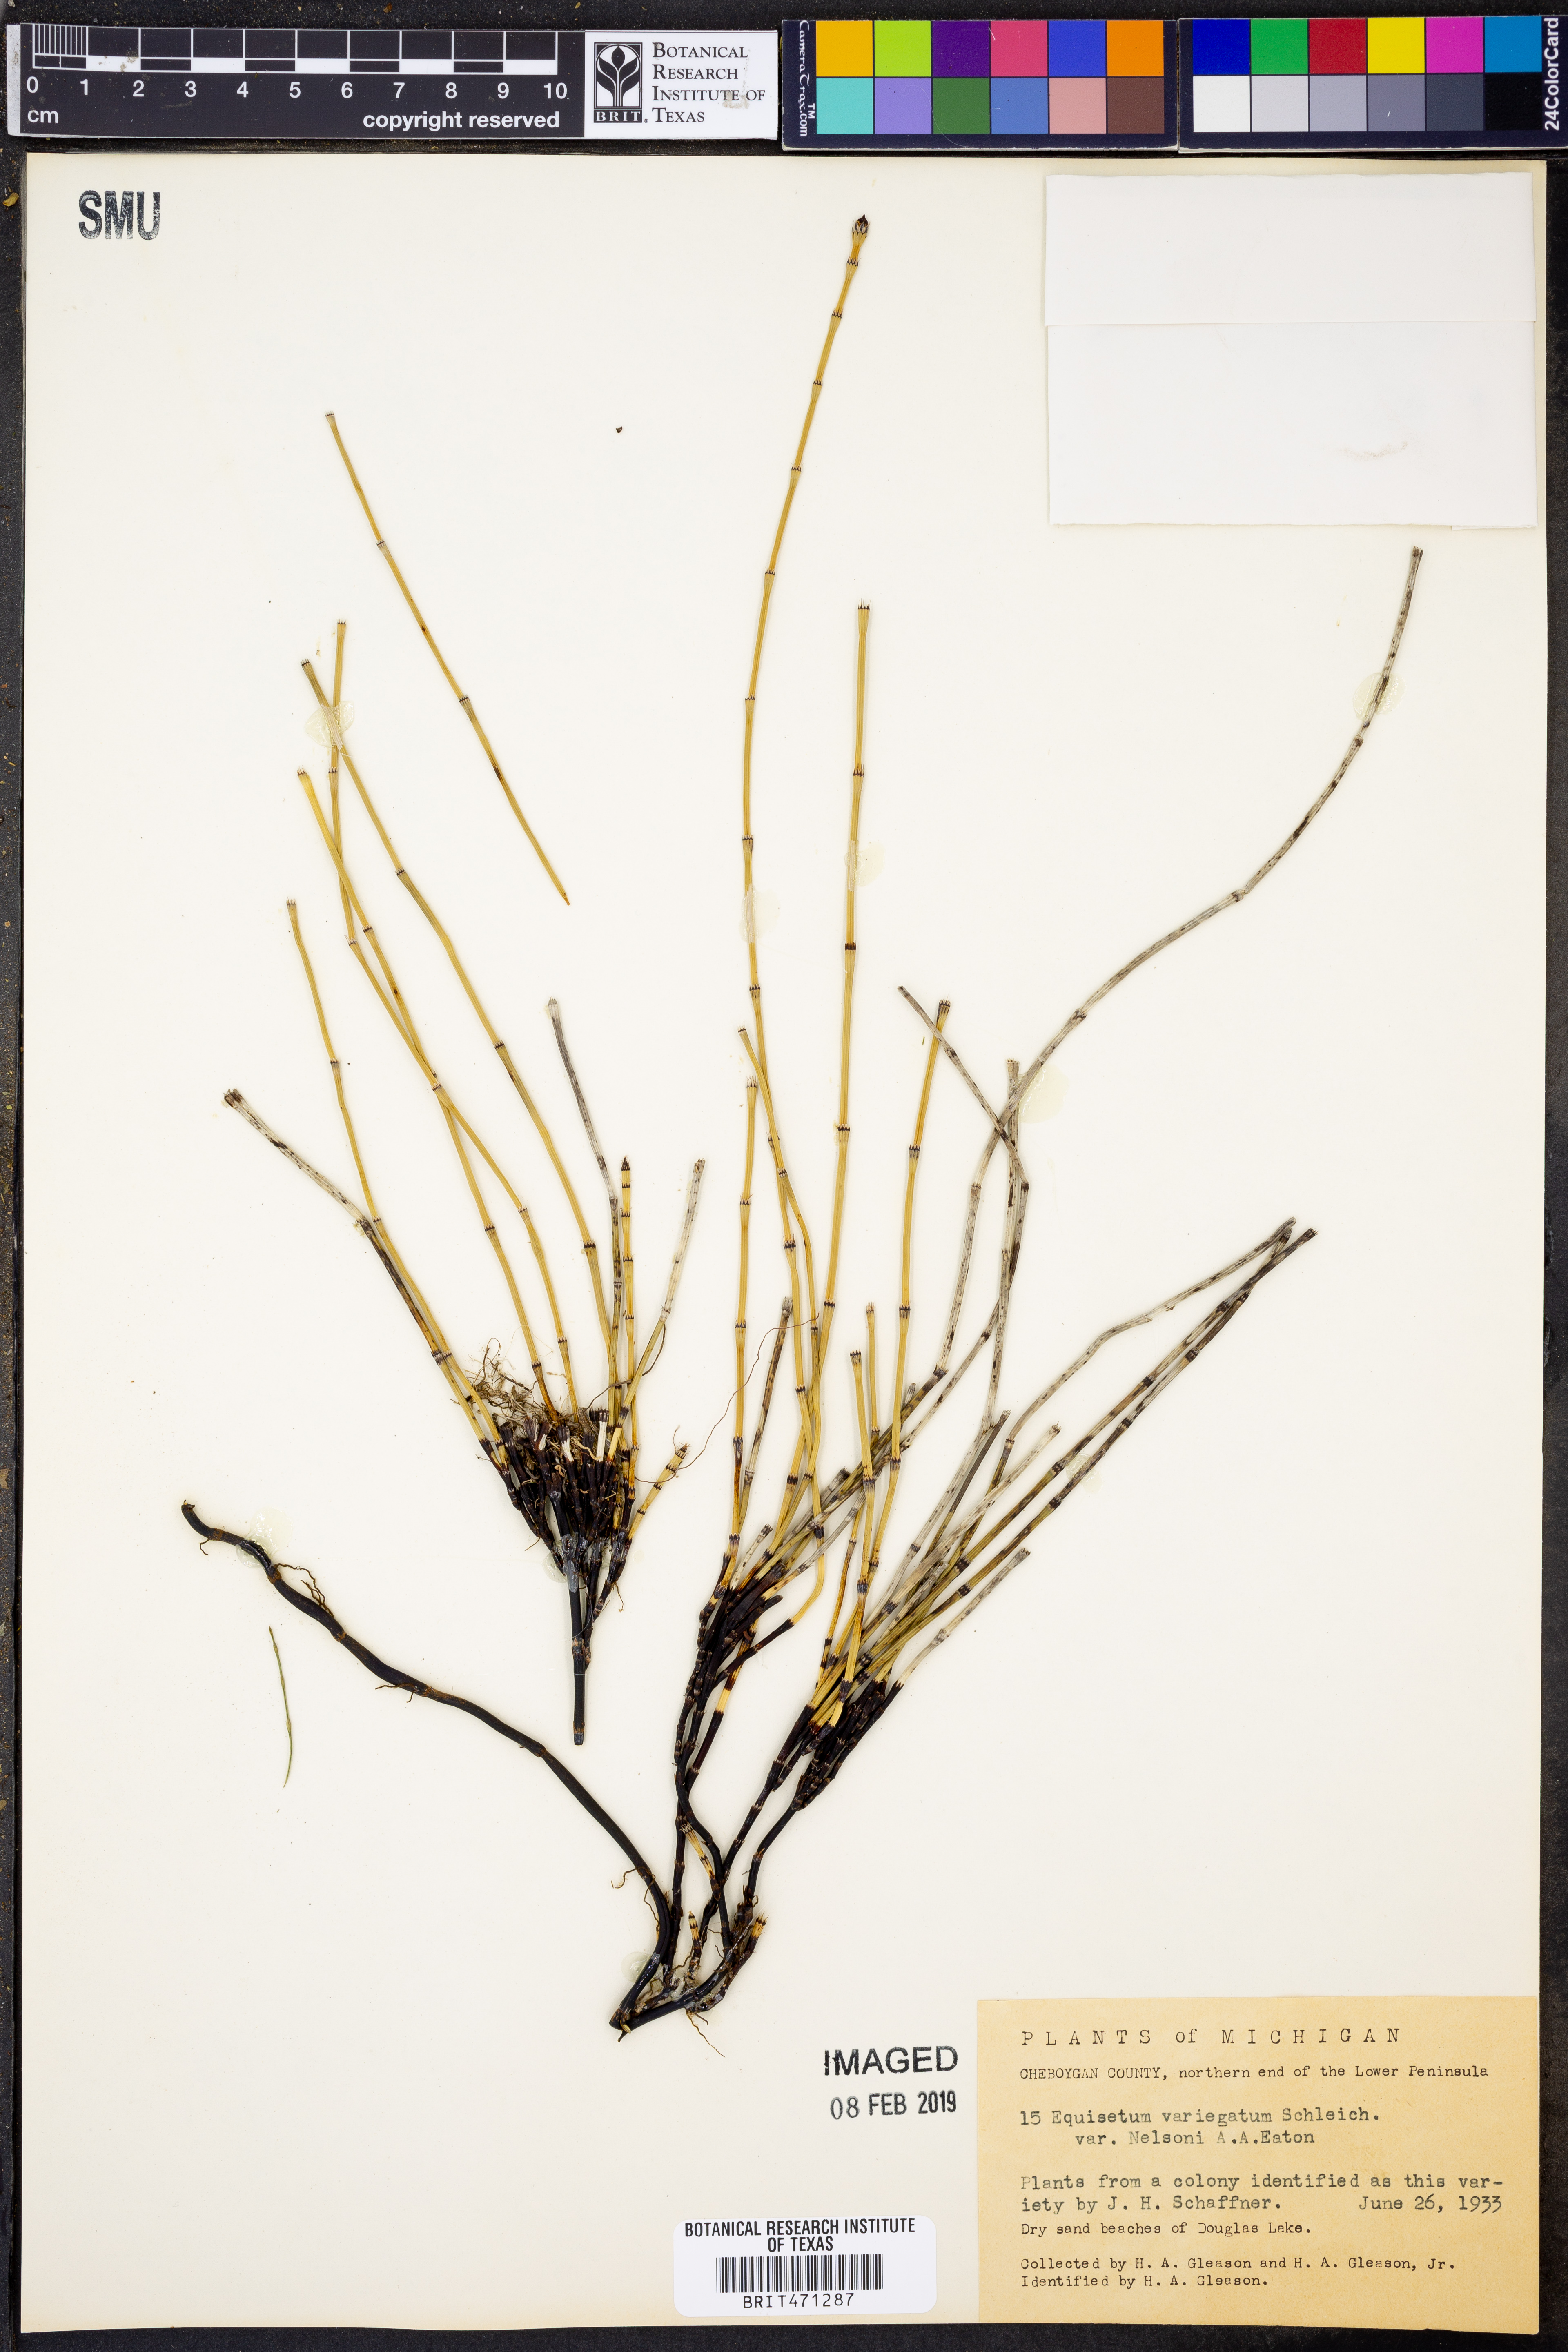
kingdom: Plantae
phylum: Tracheophyta
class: Polypodiopsida
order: Equisetales
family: Equisetaceae
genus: Equisetum
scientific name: Equisetum nelsonii
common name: Nelson's horsetail
